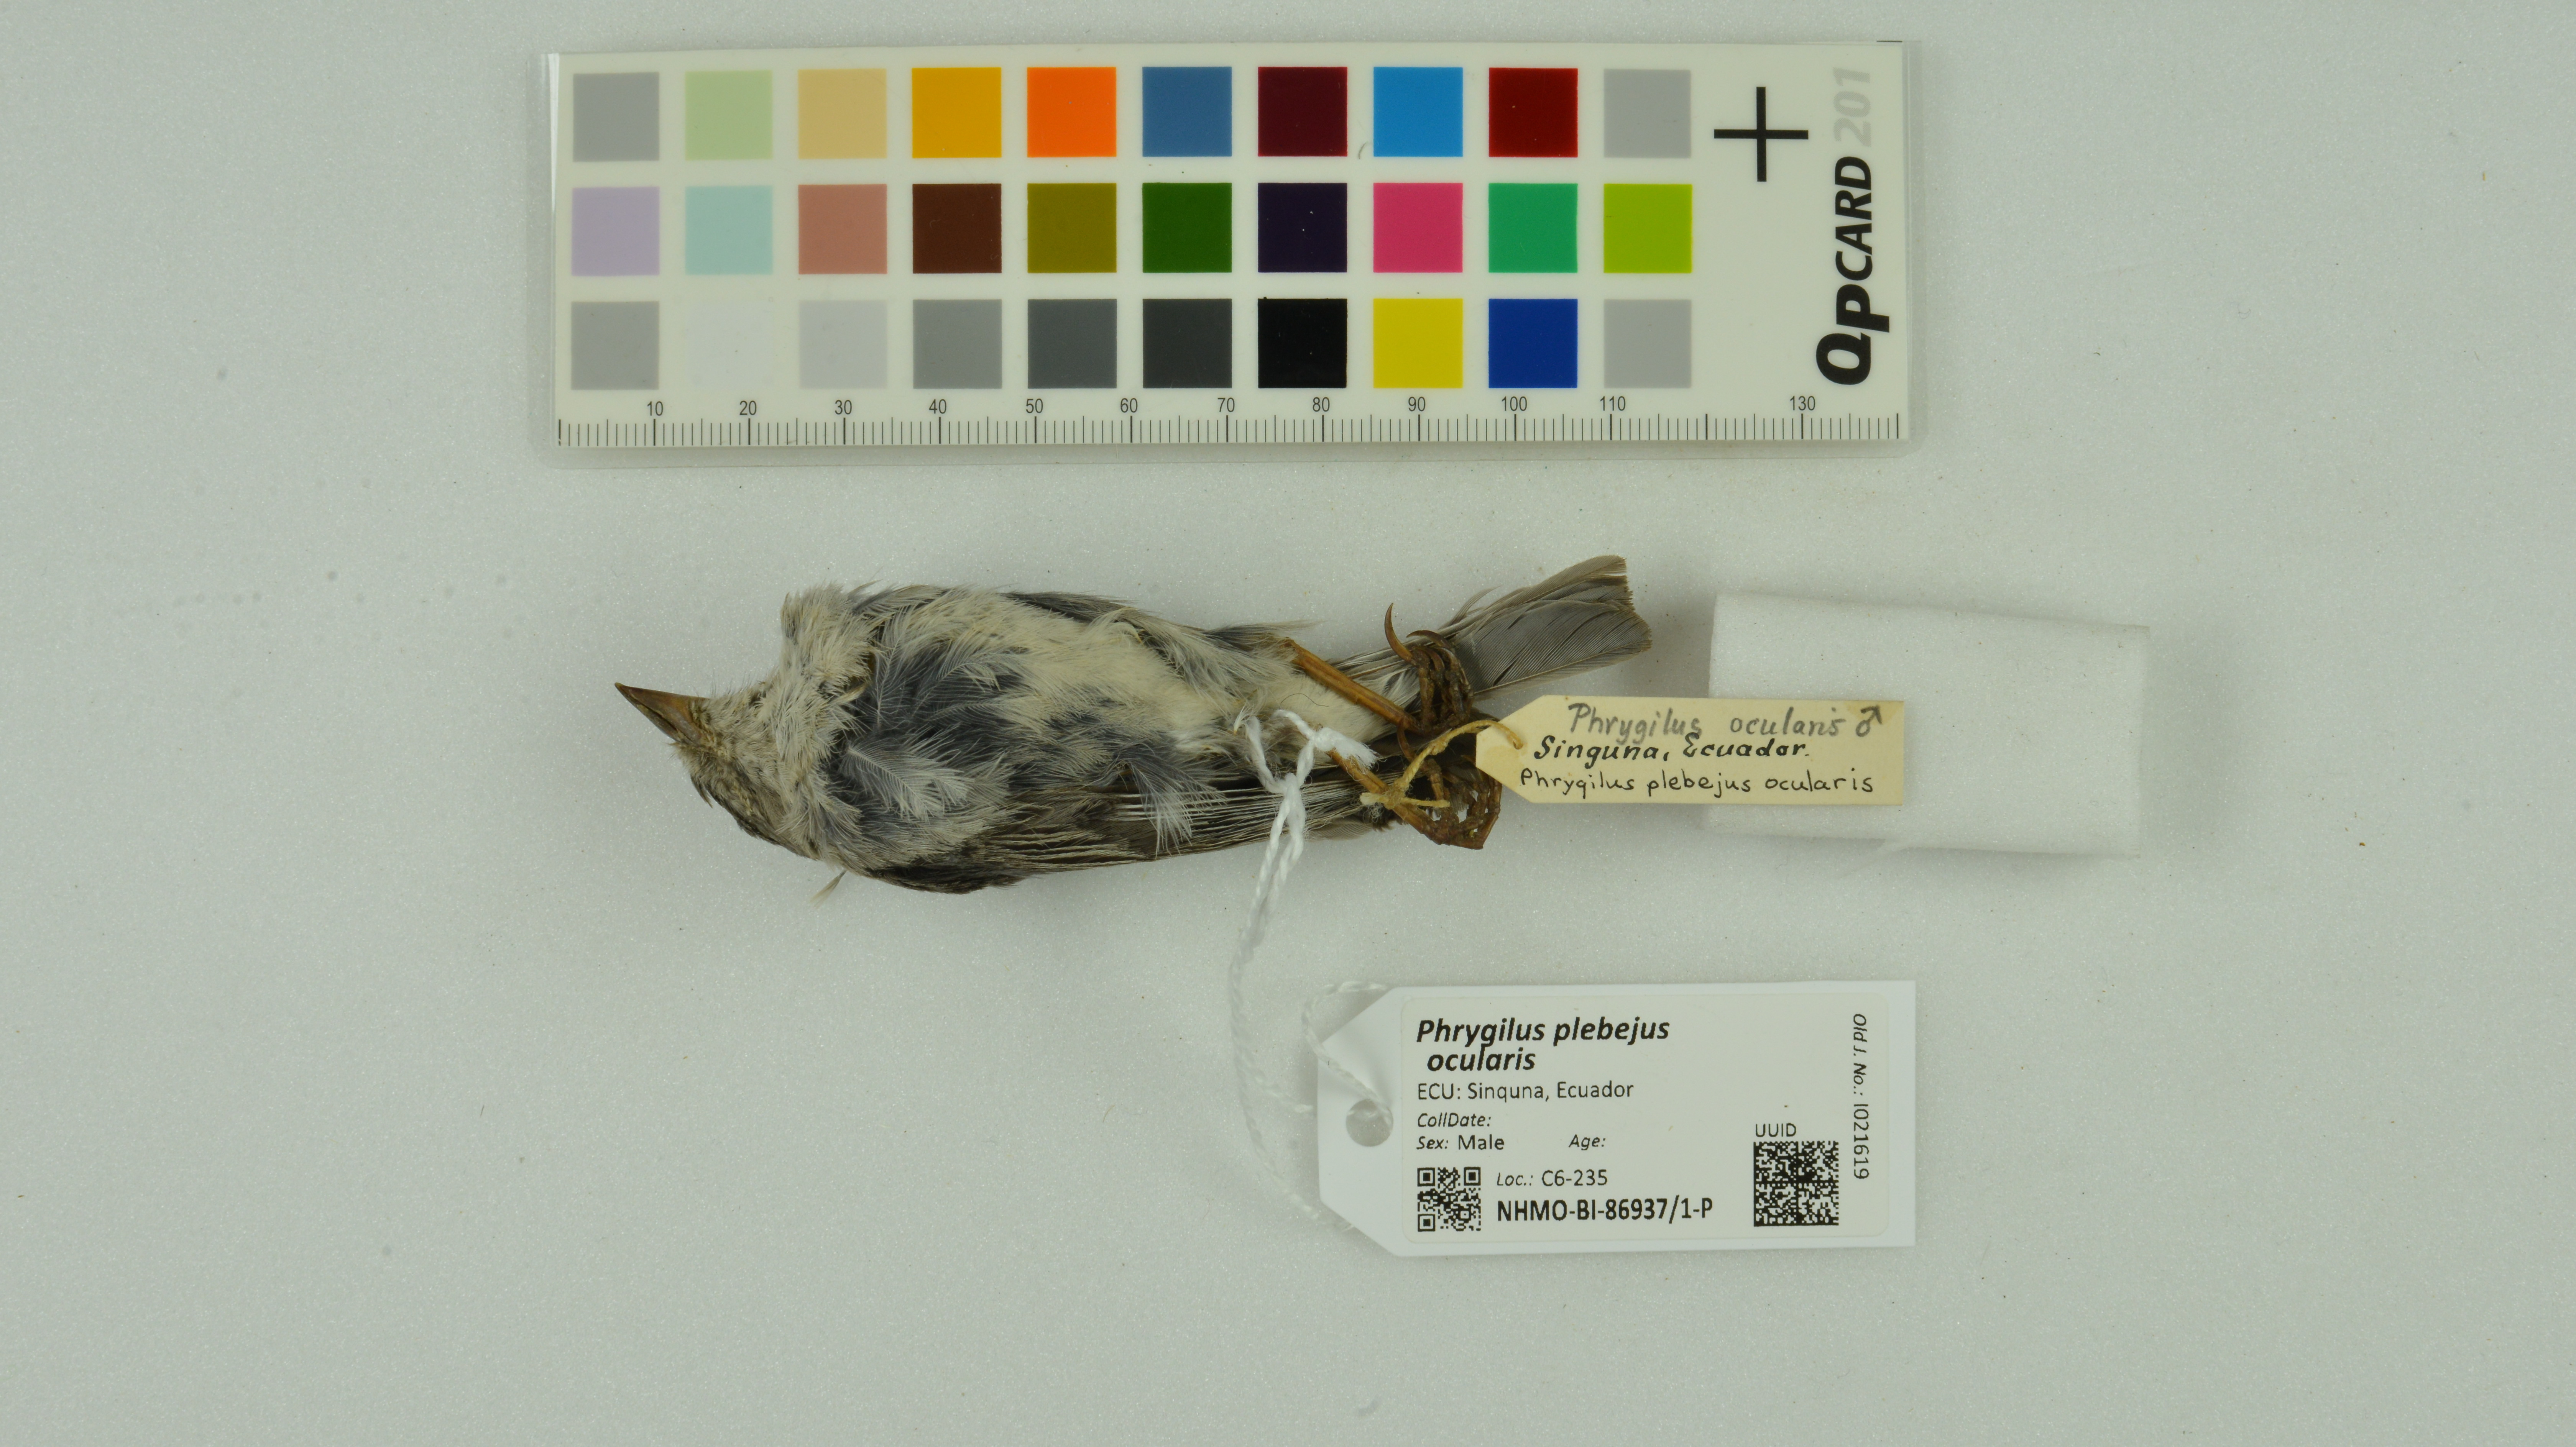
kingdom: Animalia
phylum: Chordata
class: Aves
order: Passeriformes
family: Thraupidae
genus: Geospizopsis
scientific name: Geospizopsis plebejus
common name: Ash-breasted sierra-finch
